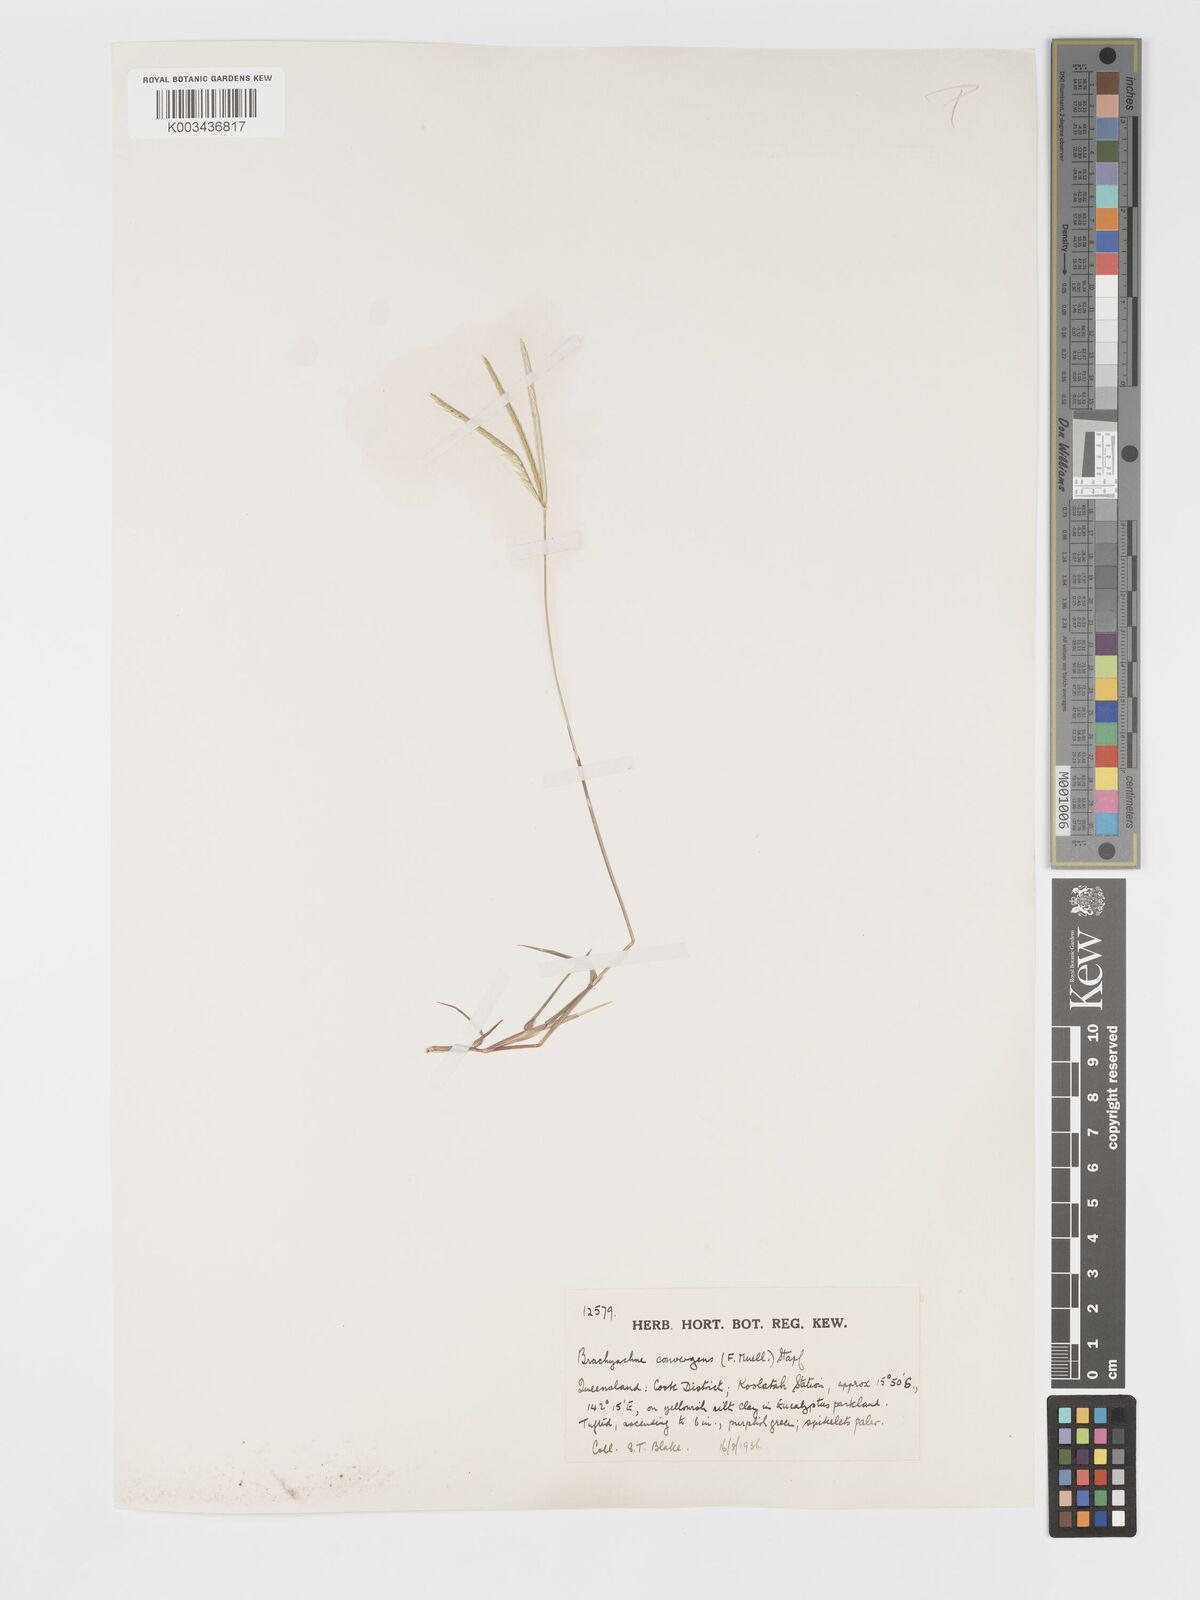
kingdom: Plantae
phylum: Tracheophyta
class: Liliopsida
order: Poales
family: Poaceae
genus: Cynodon
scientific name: Cynodon convergens
